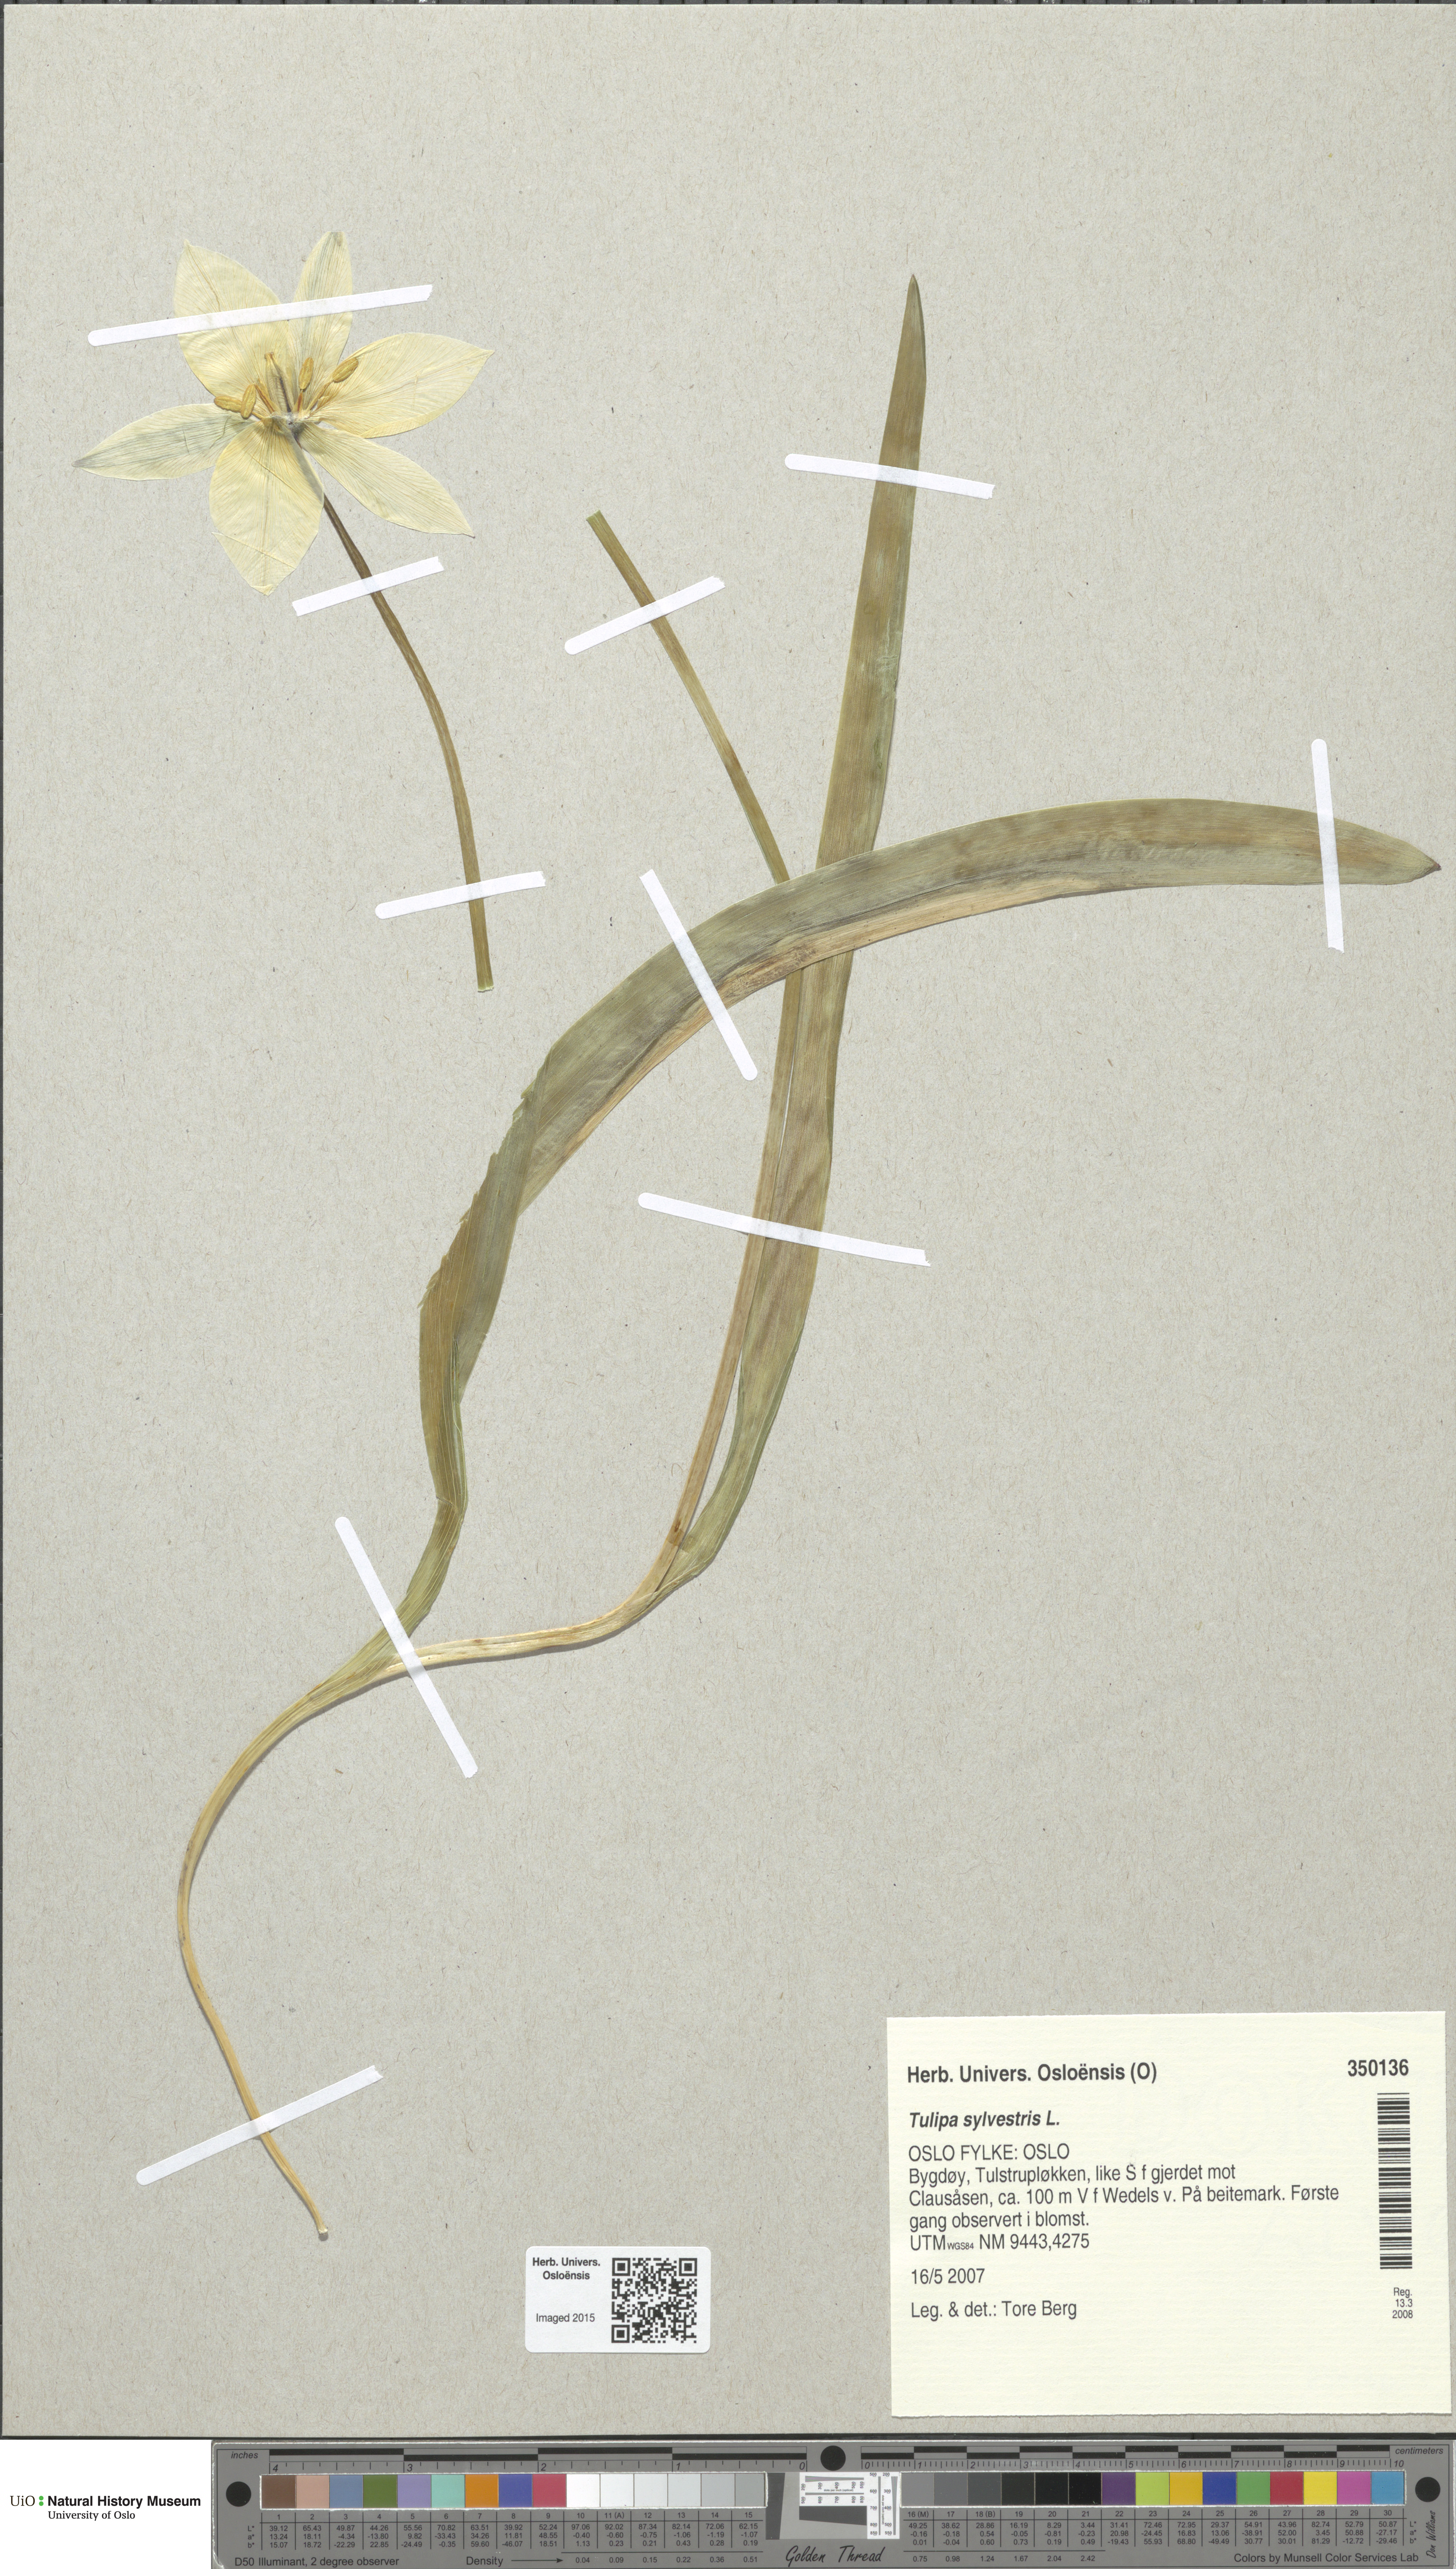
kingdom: Plantae
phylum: Tracheophyta
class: Liliopsida
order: Liliales
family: Liliaceae
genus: Tulipa
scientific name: Tulipa sylvestris
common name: Wild tulip
